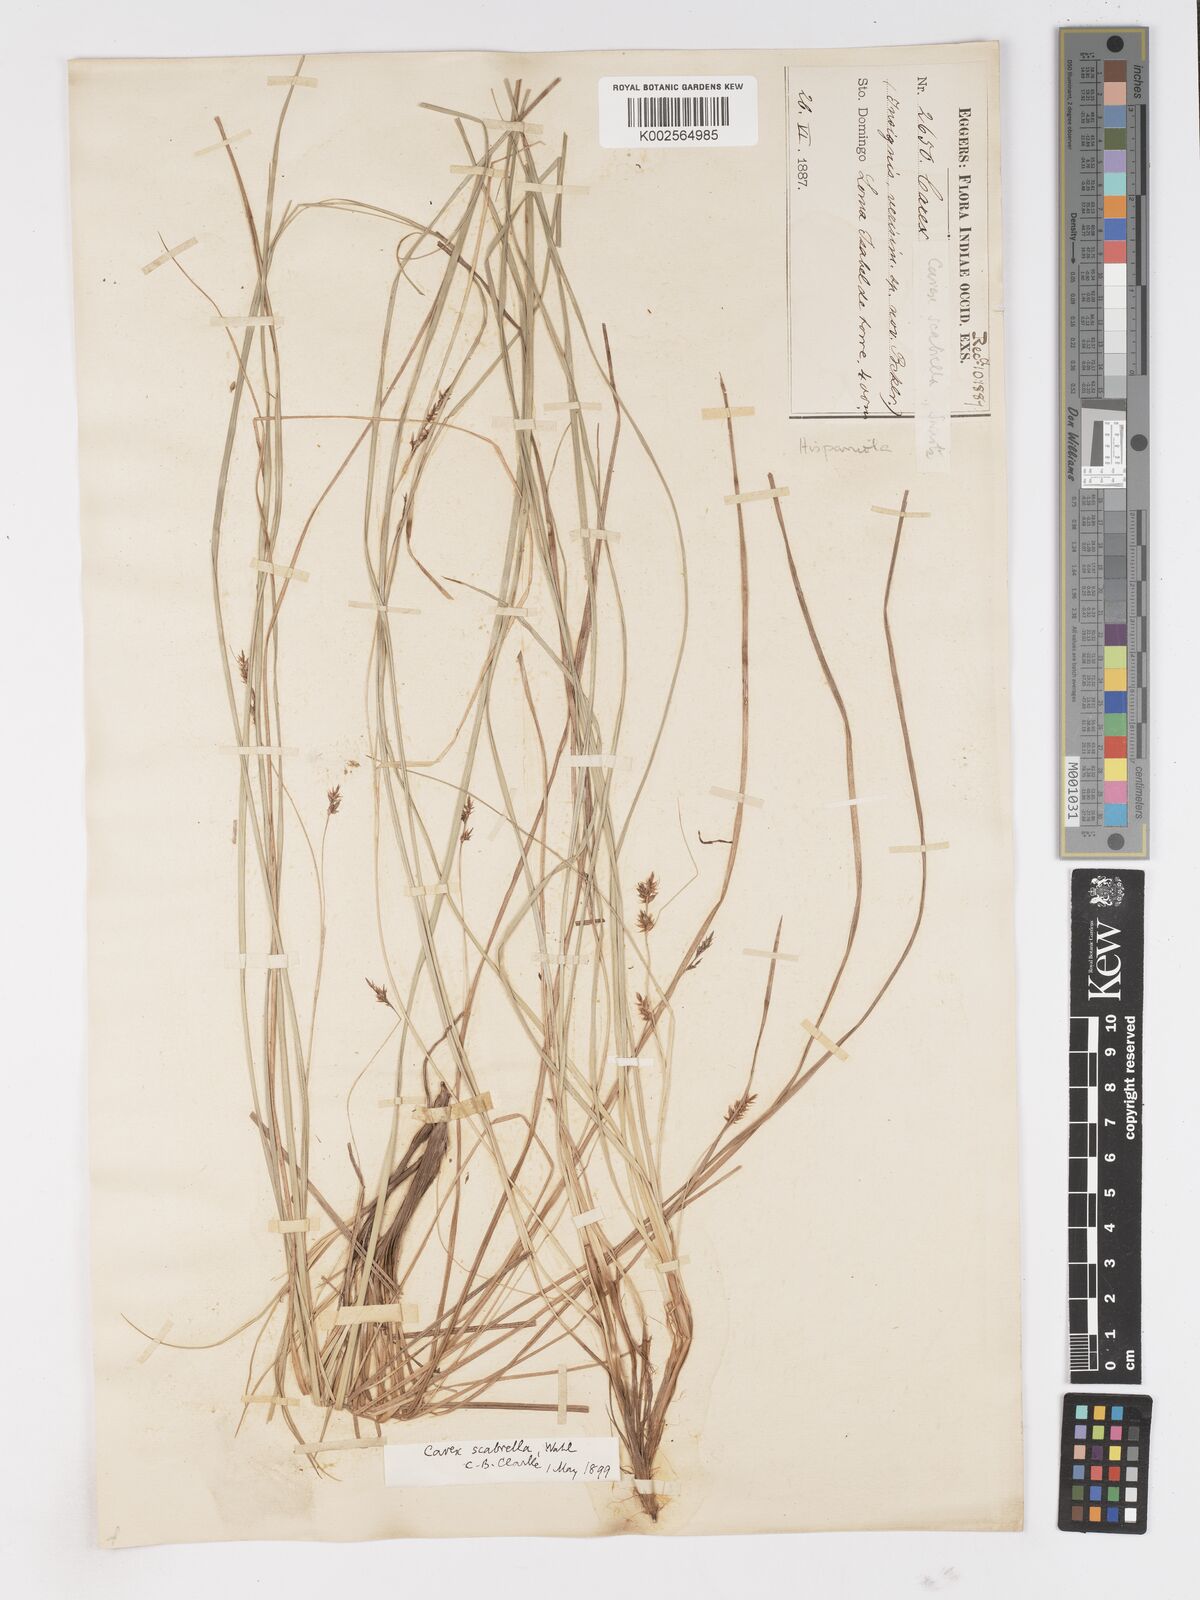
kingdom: Plantae
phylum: Tracheophyta
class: Liliopsida
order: Poales
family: Cyperaceae
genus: Carex
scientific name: Carex scabrella
